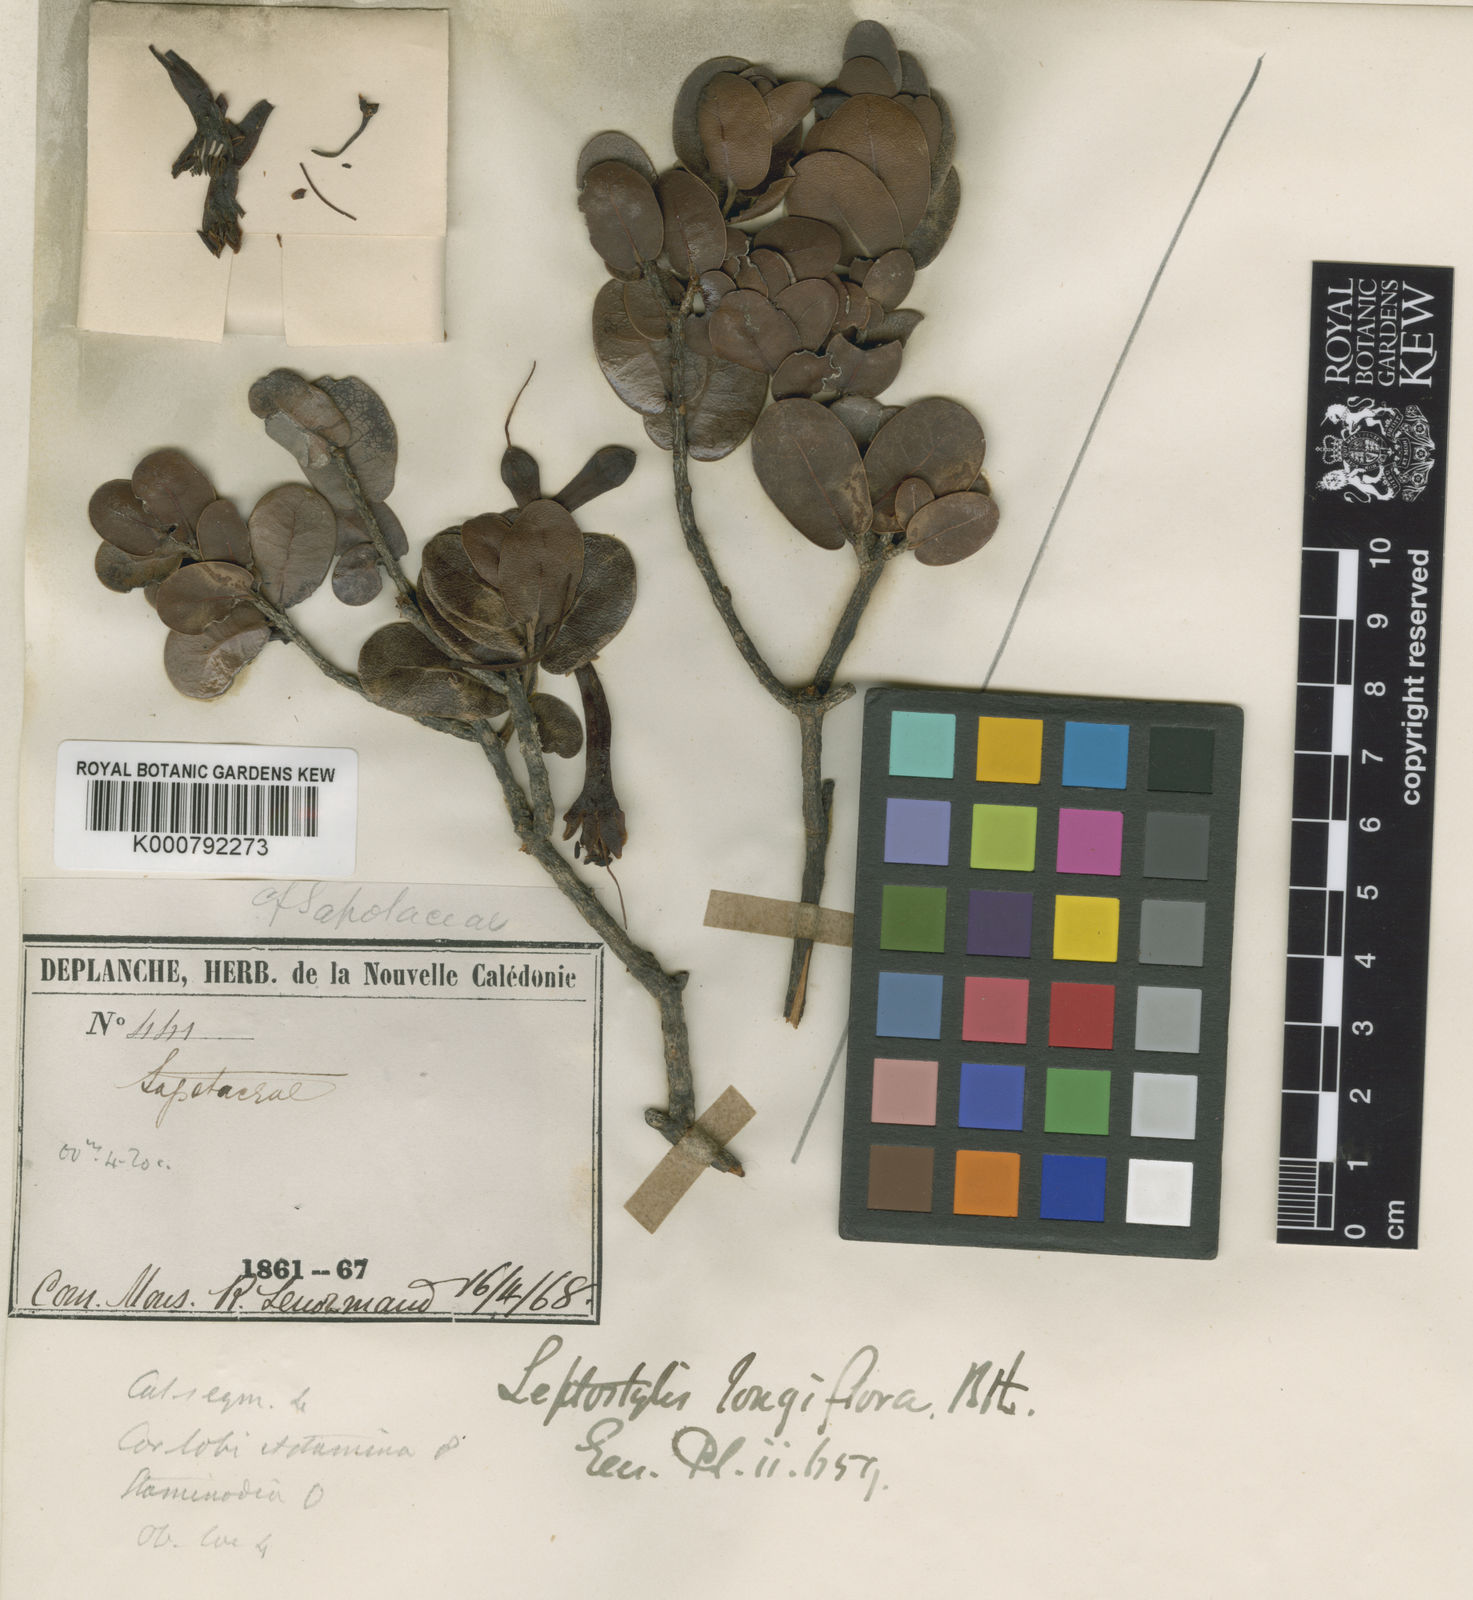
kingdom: Plantae
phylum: Tracheophyta
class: Magnoliopsida
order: Ericales
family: Sapotaceae
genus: Pycnandra
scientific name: Pycnandra longiflora
